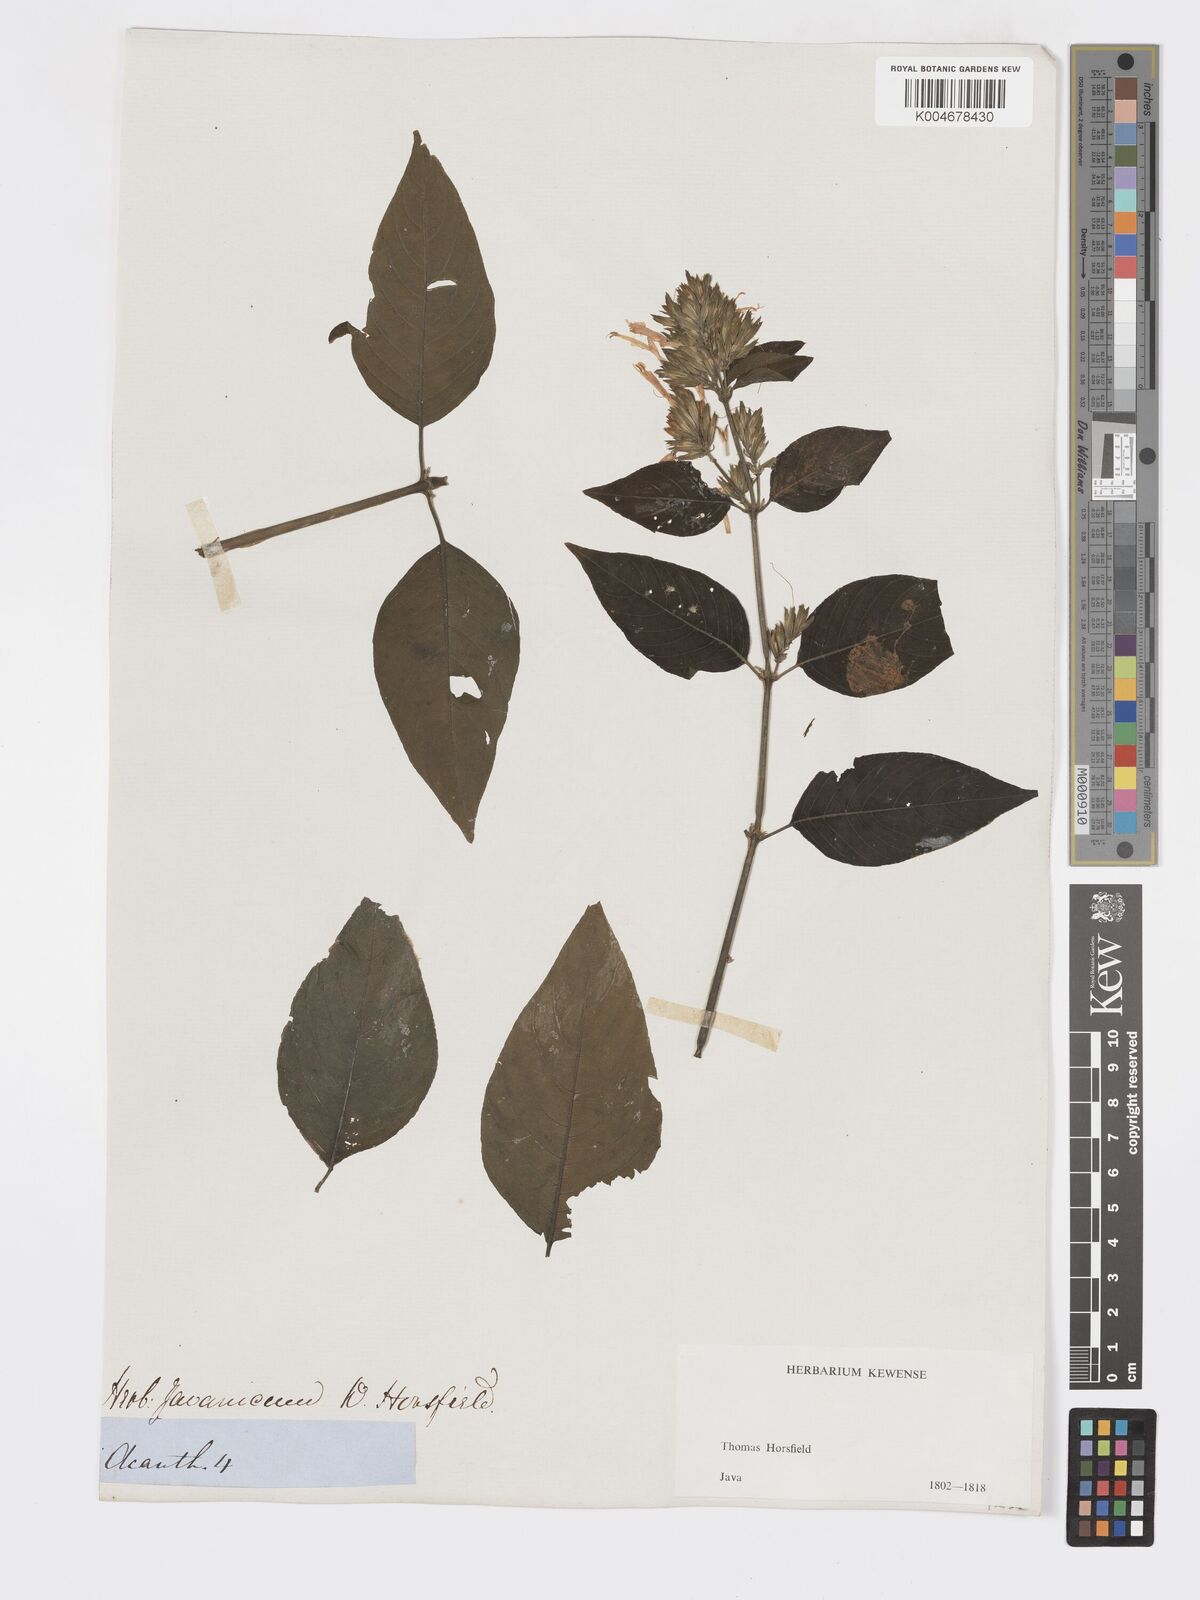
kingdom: Plantae
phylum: Tracheophyta
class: Magnoliopsida
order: Lamiales
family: Acanthaceae
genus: Hypoestes
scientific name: Hypoestes
